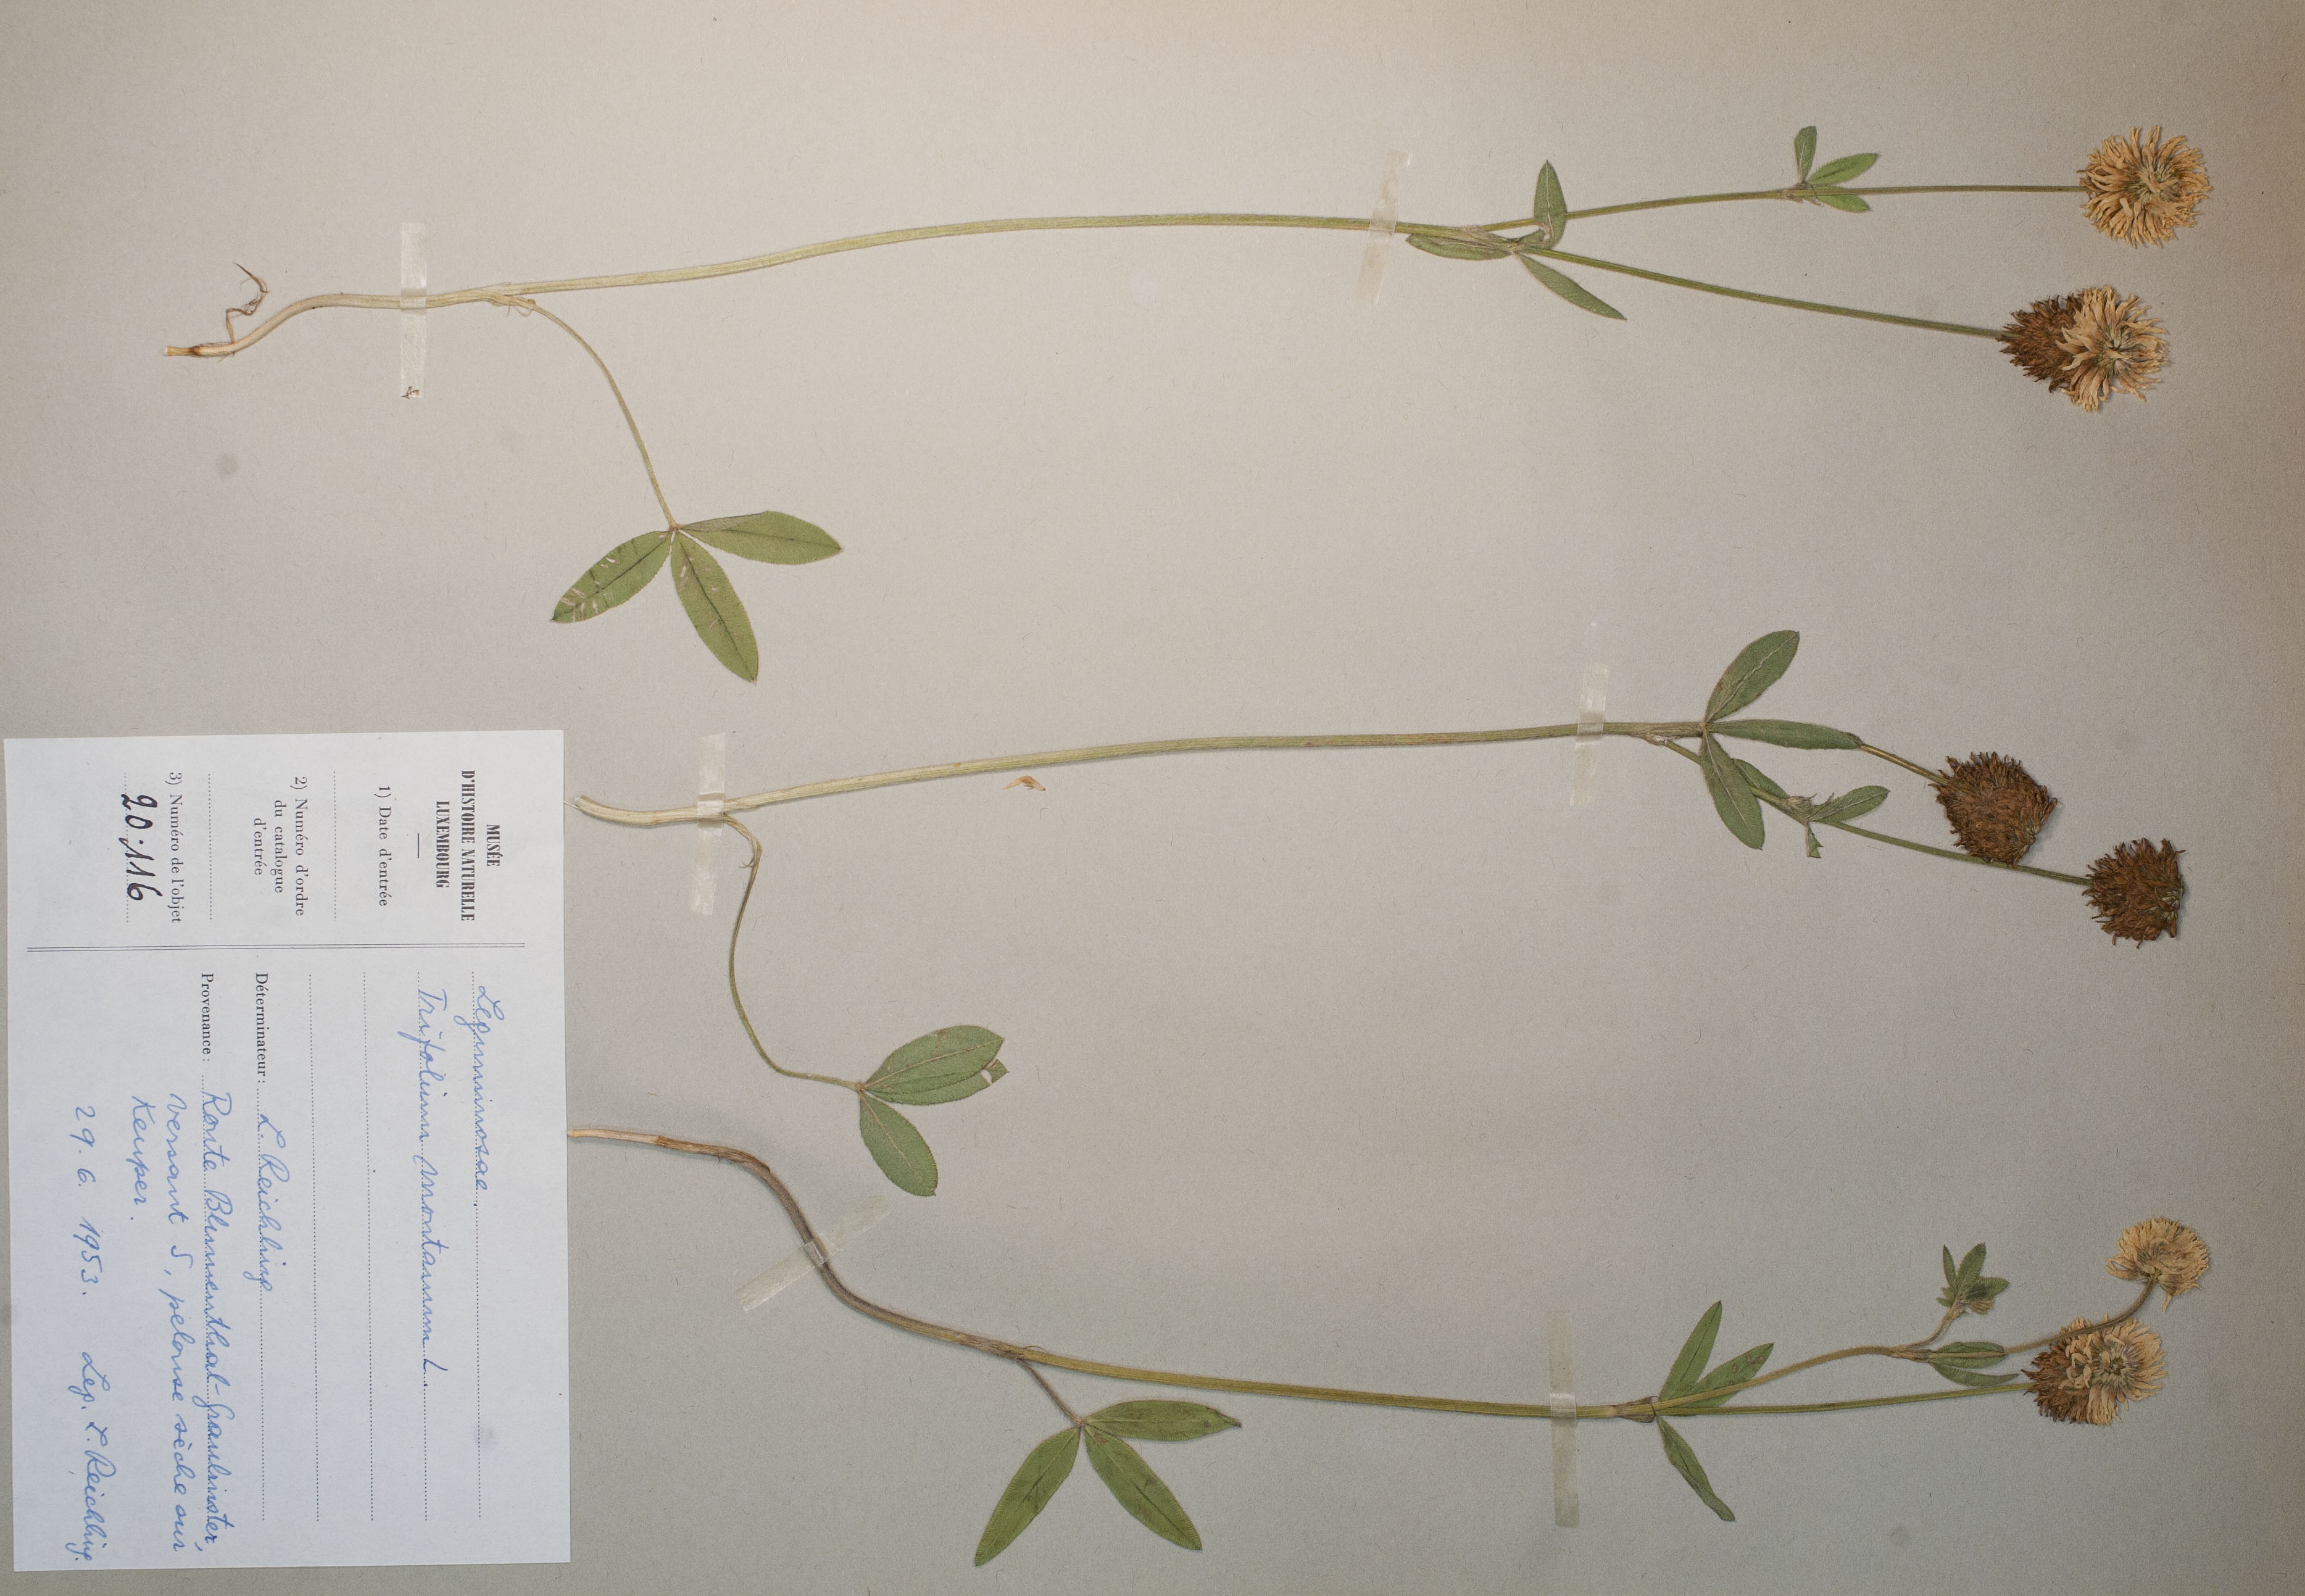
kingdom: Plantae
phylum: Tracheophyta
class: Magnoliopsida
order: Fabales
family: Fabaceae
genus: Trifolium
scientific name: Trifolium montanum
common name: Mountain clover
